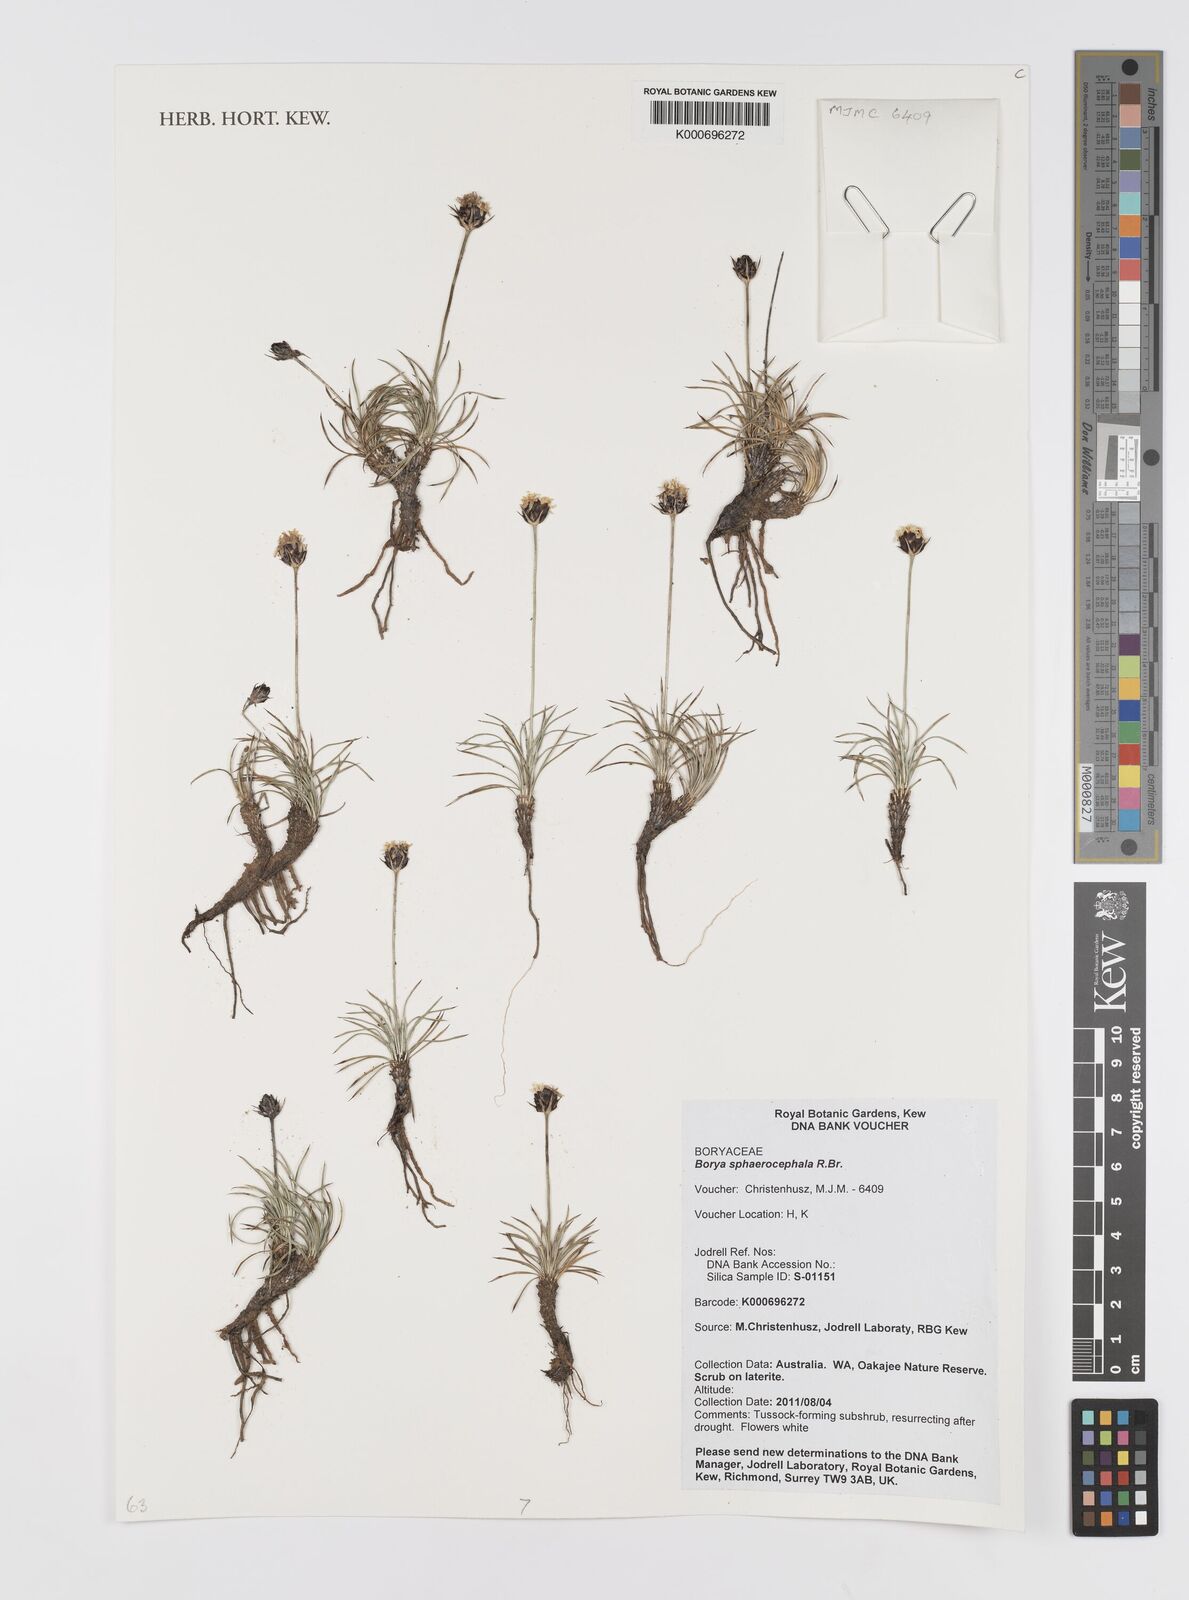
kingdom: Plantae
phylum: Tracheophyta
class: Liliopsida
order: Asparagales
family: Boryaceae
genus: Borya
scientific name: Borya sphaerocephala
